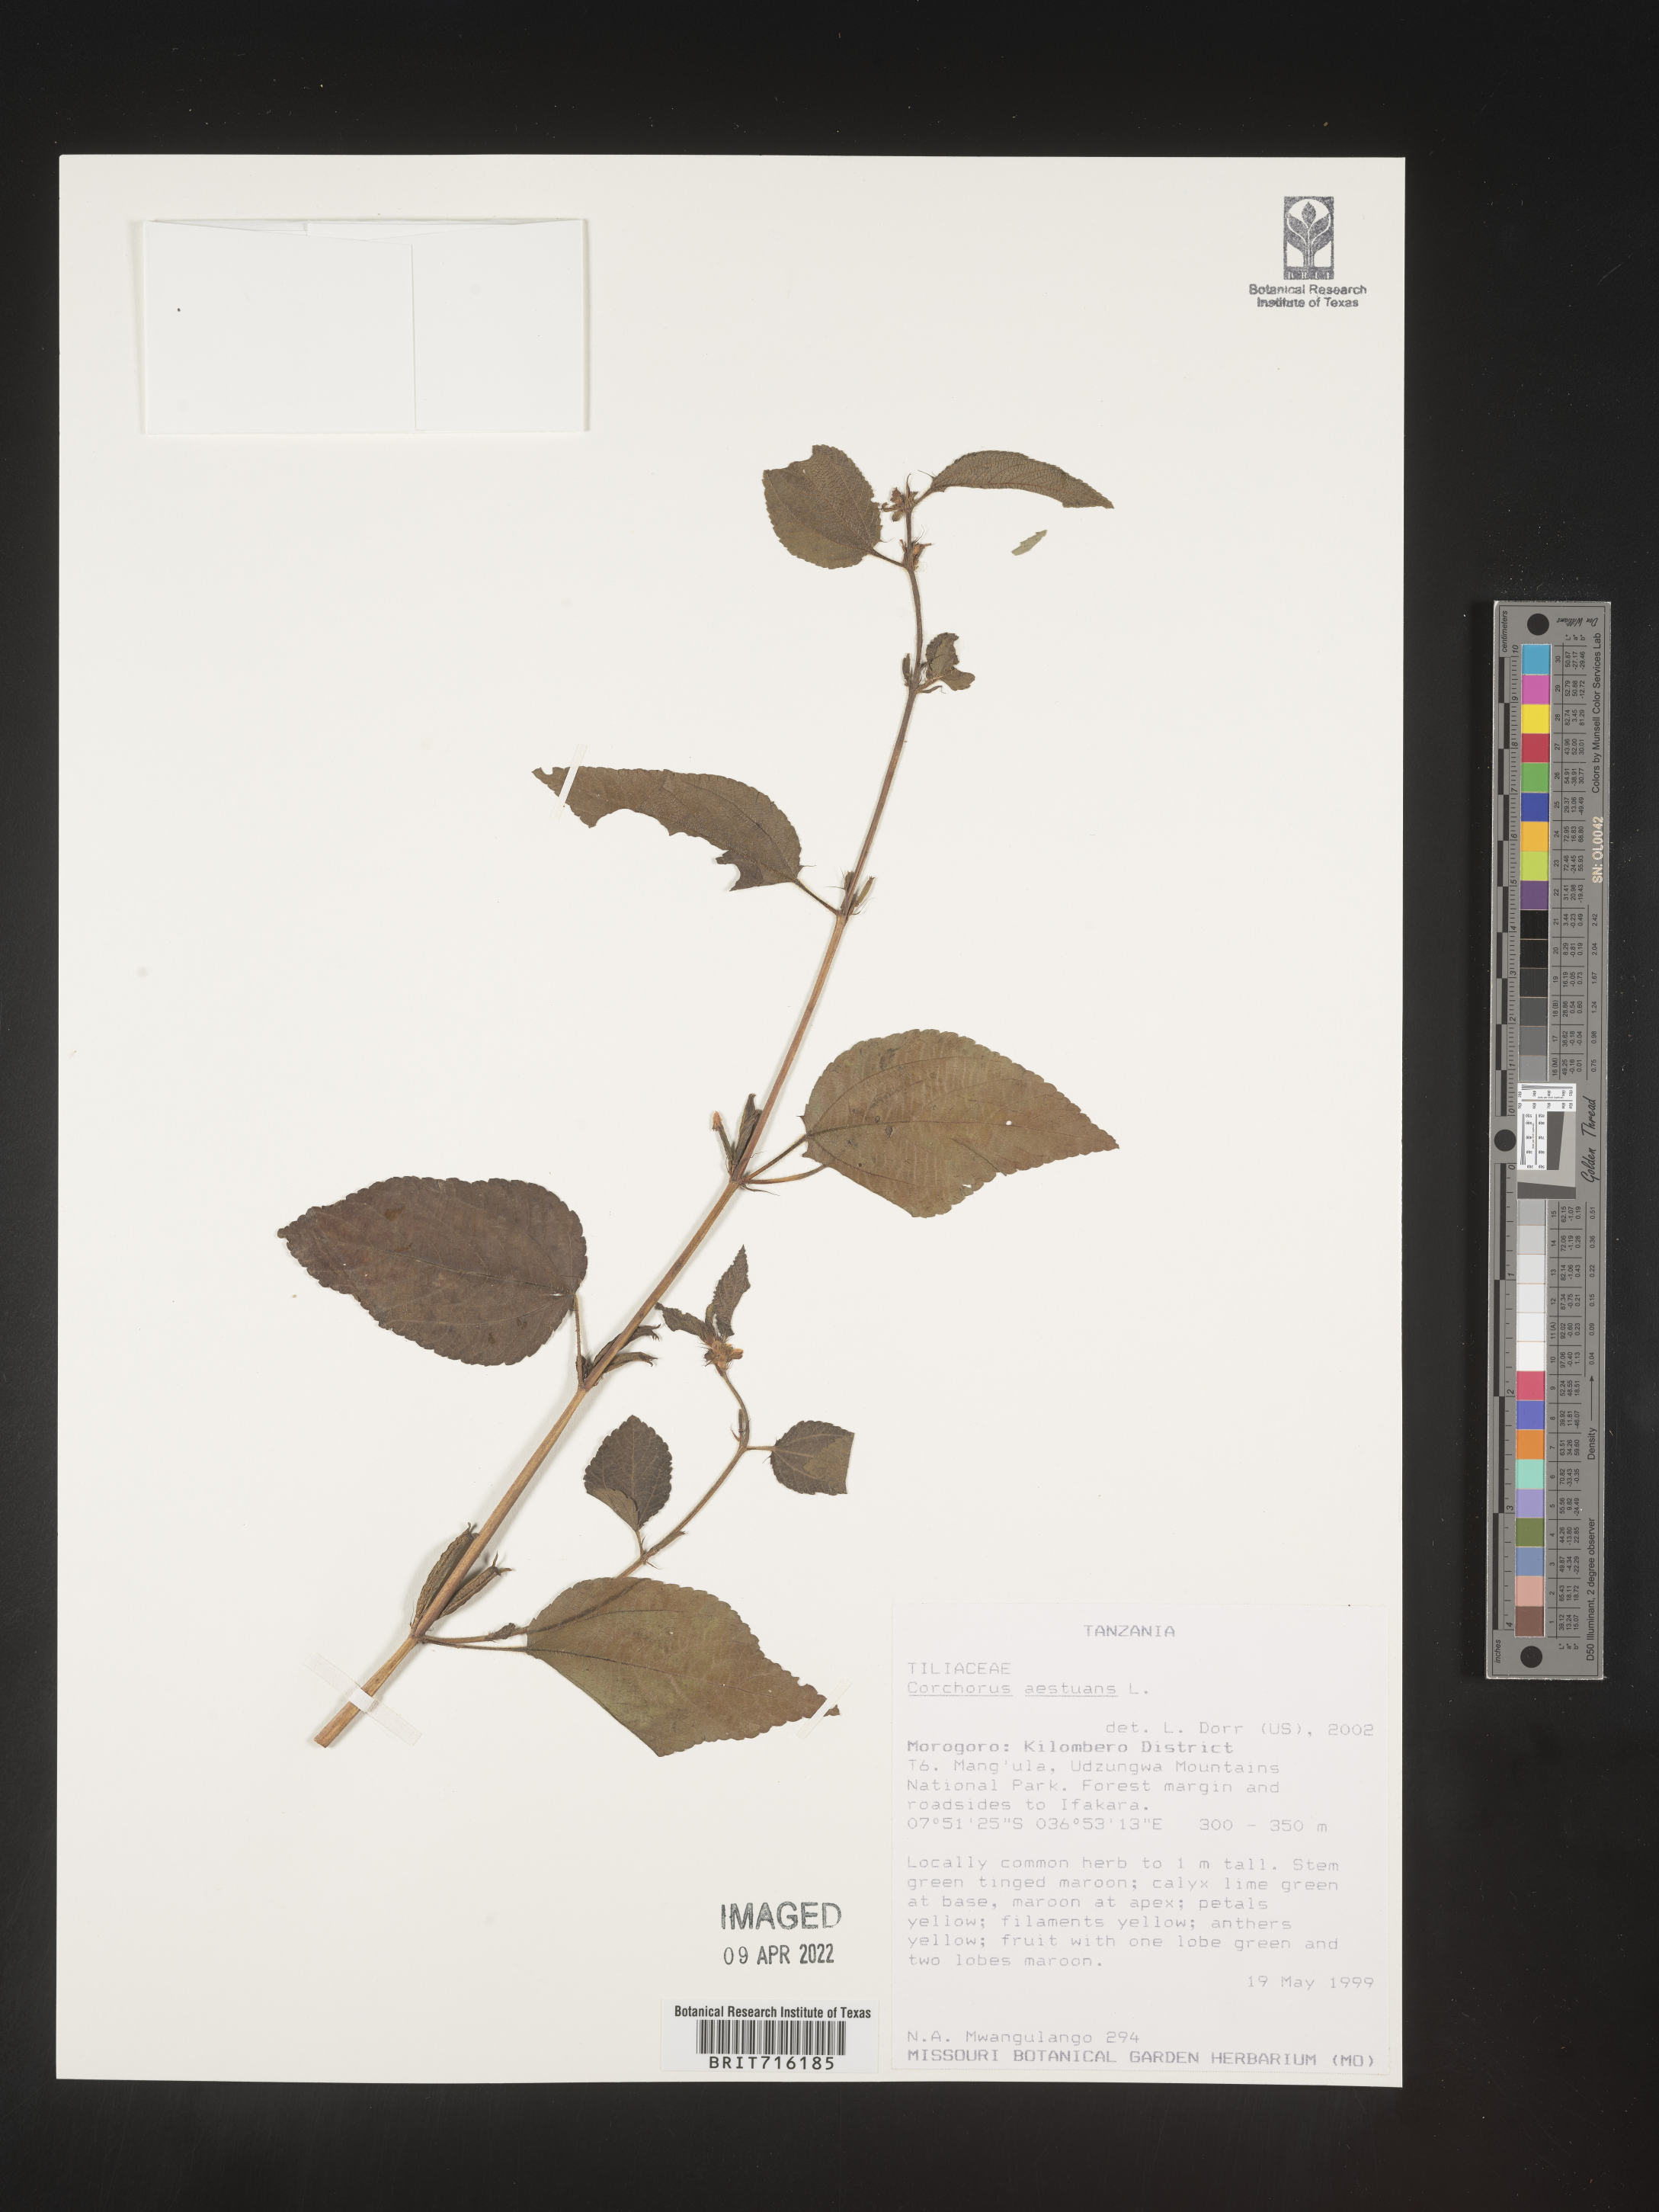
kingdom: Plantae
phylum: Tracheophyta
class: Magnoliopsida
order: Malvales
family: Malvaceae
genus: Corchorus
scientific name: Corchorus
